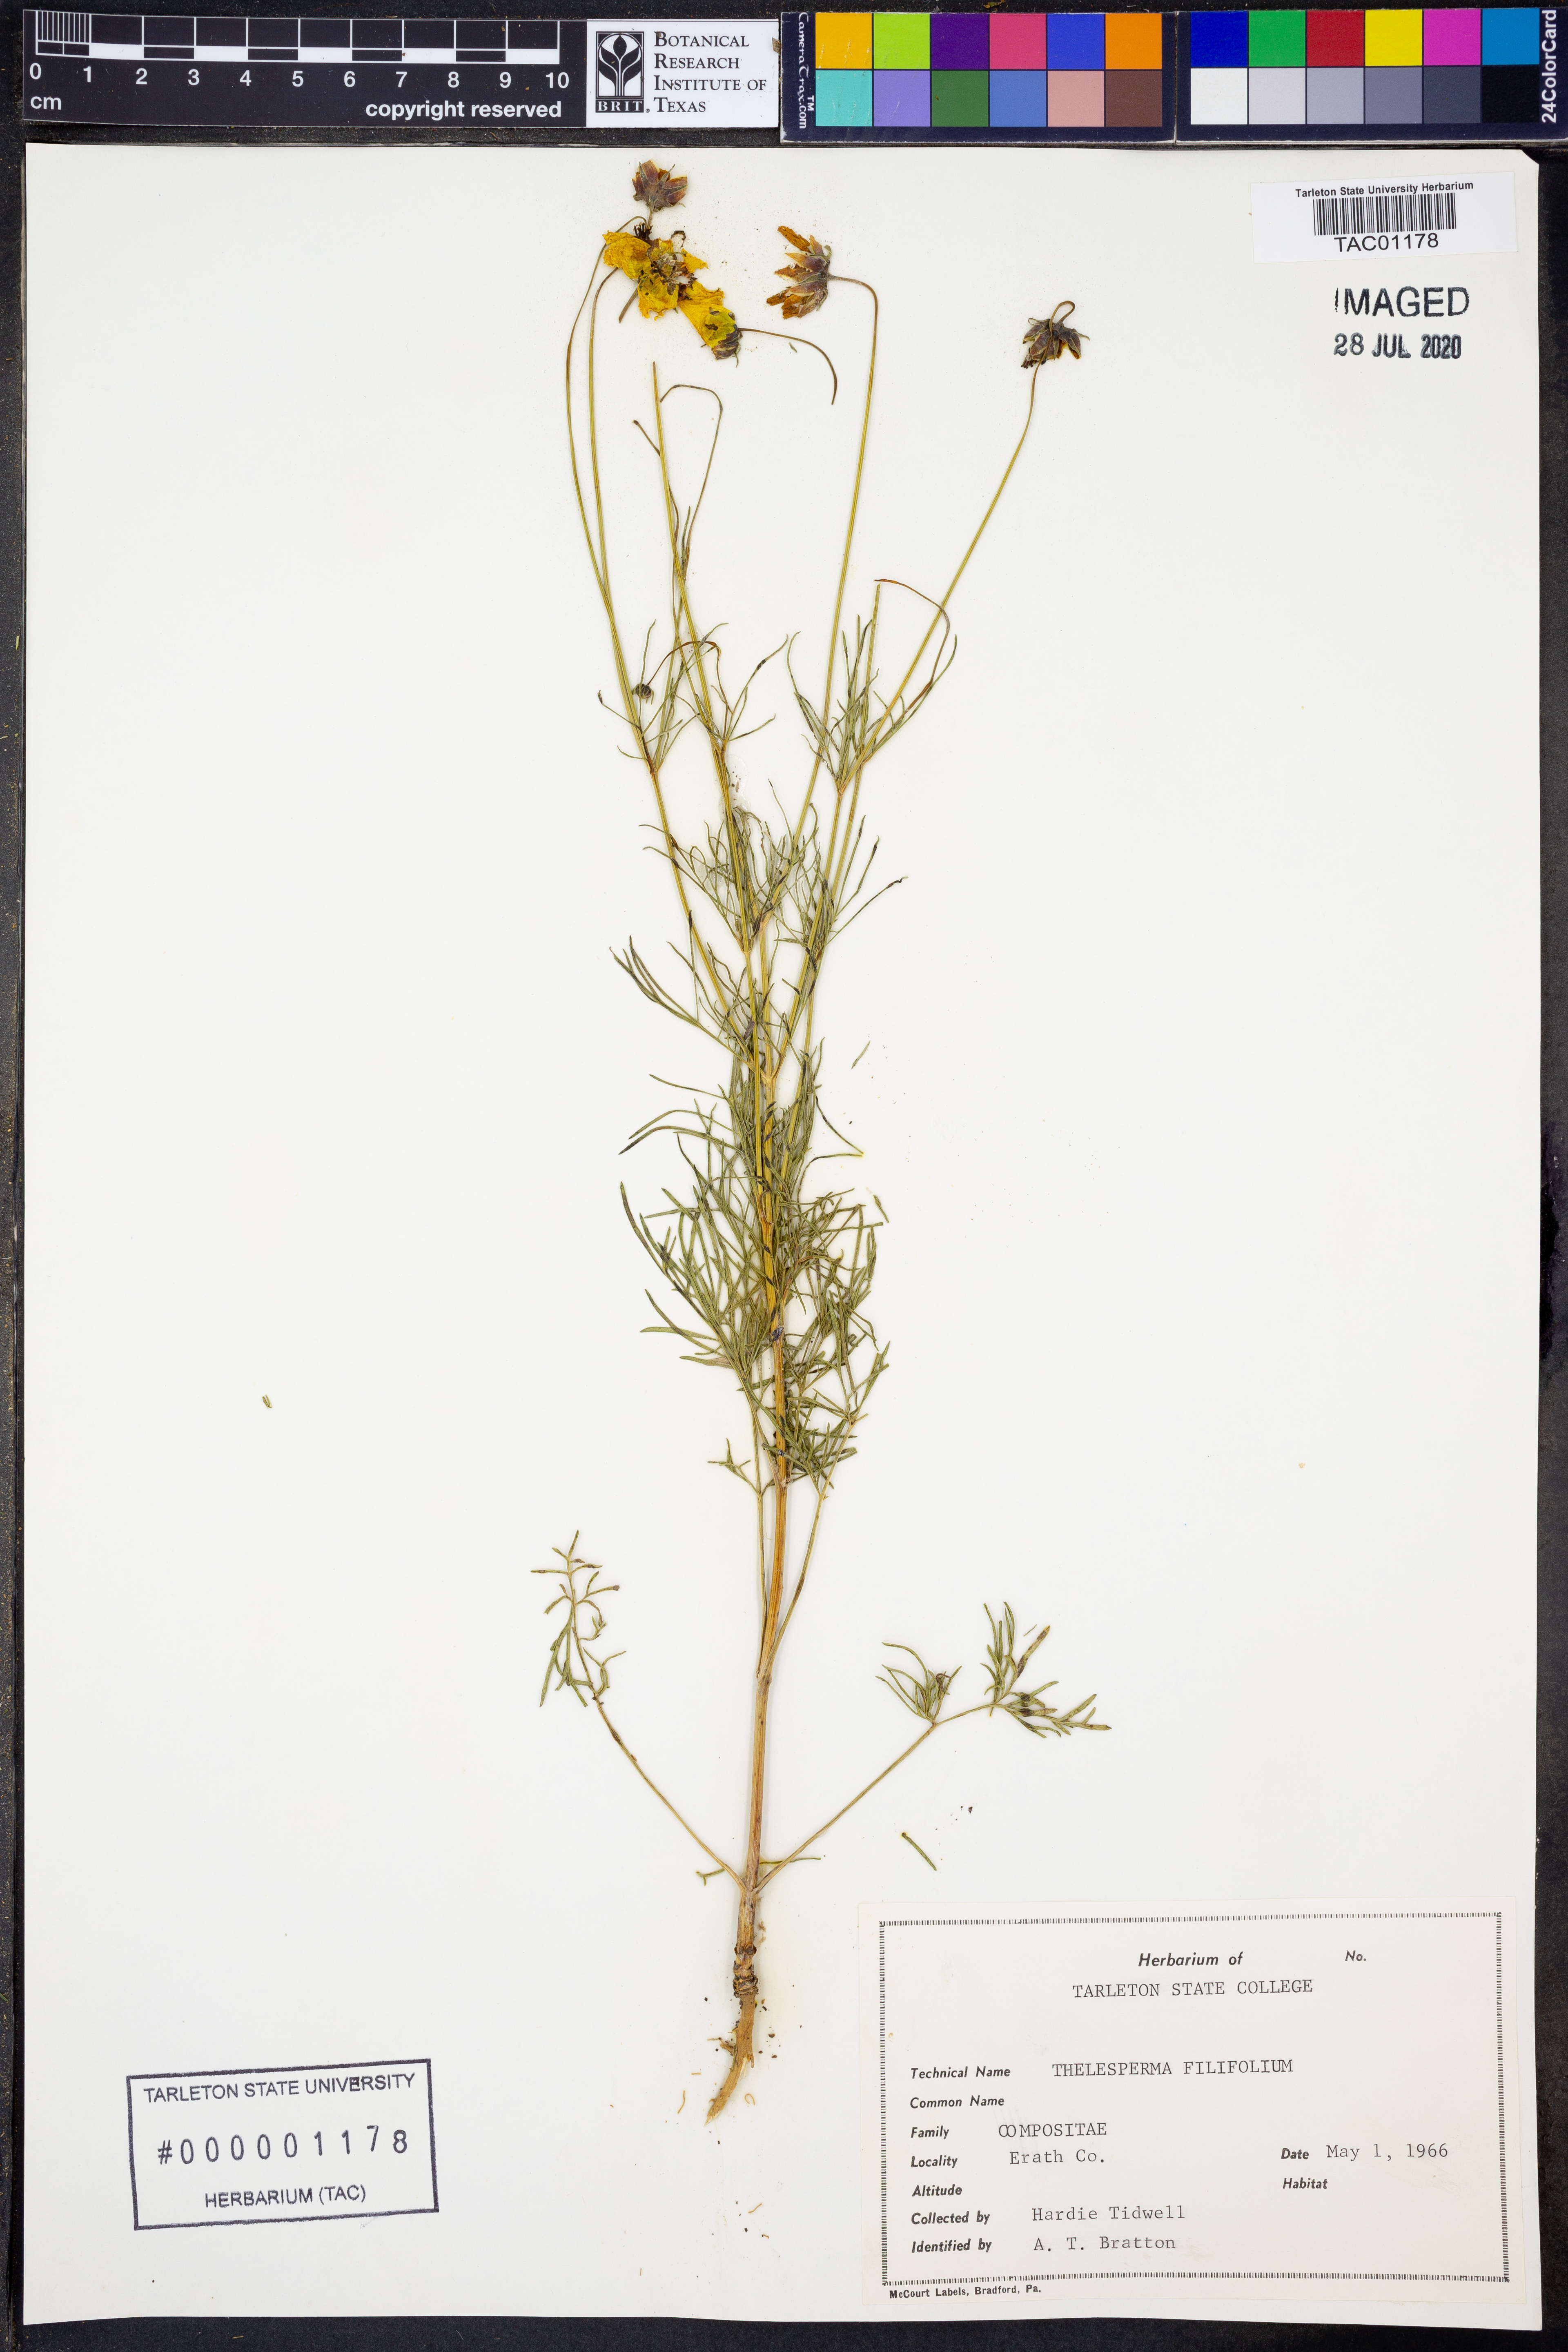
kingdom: Plantae
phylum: Tracheophyta
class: Magnoliopsida
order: Asterales
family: Asteraceae
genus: Thelesperma
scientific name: Thelesperma filifolium
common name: Stiff greenthread
